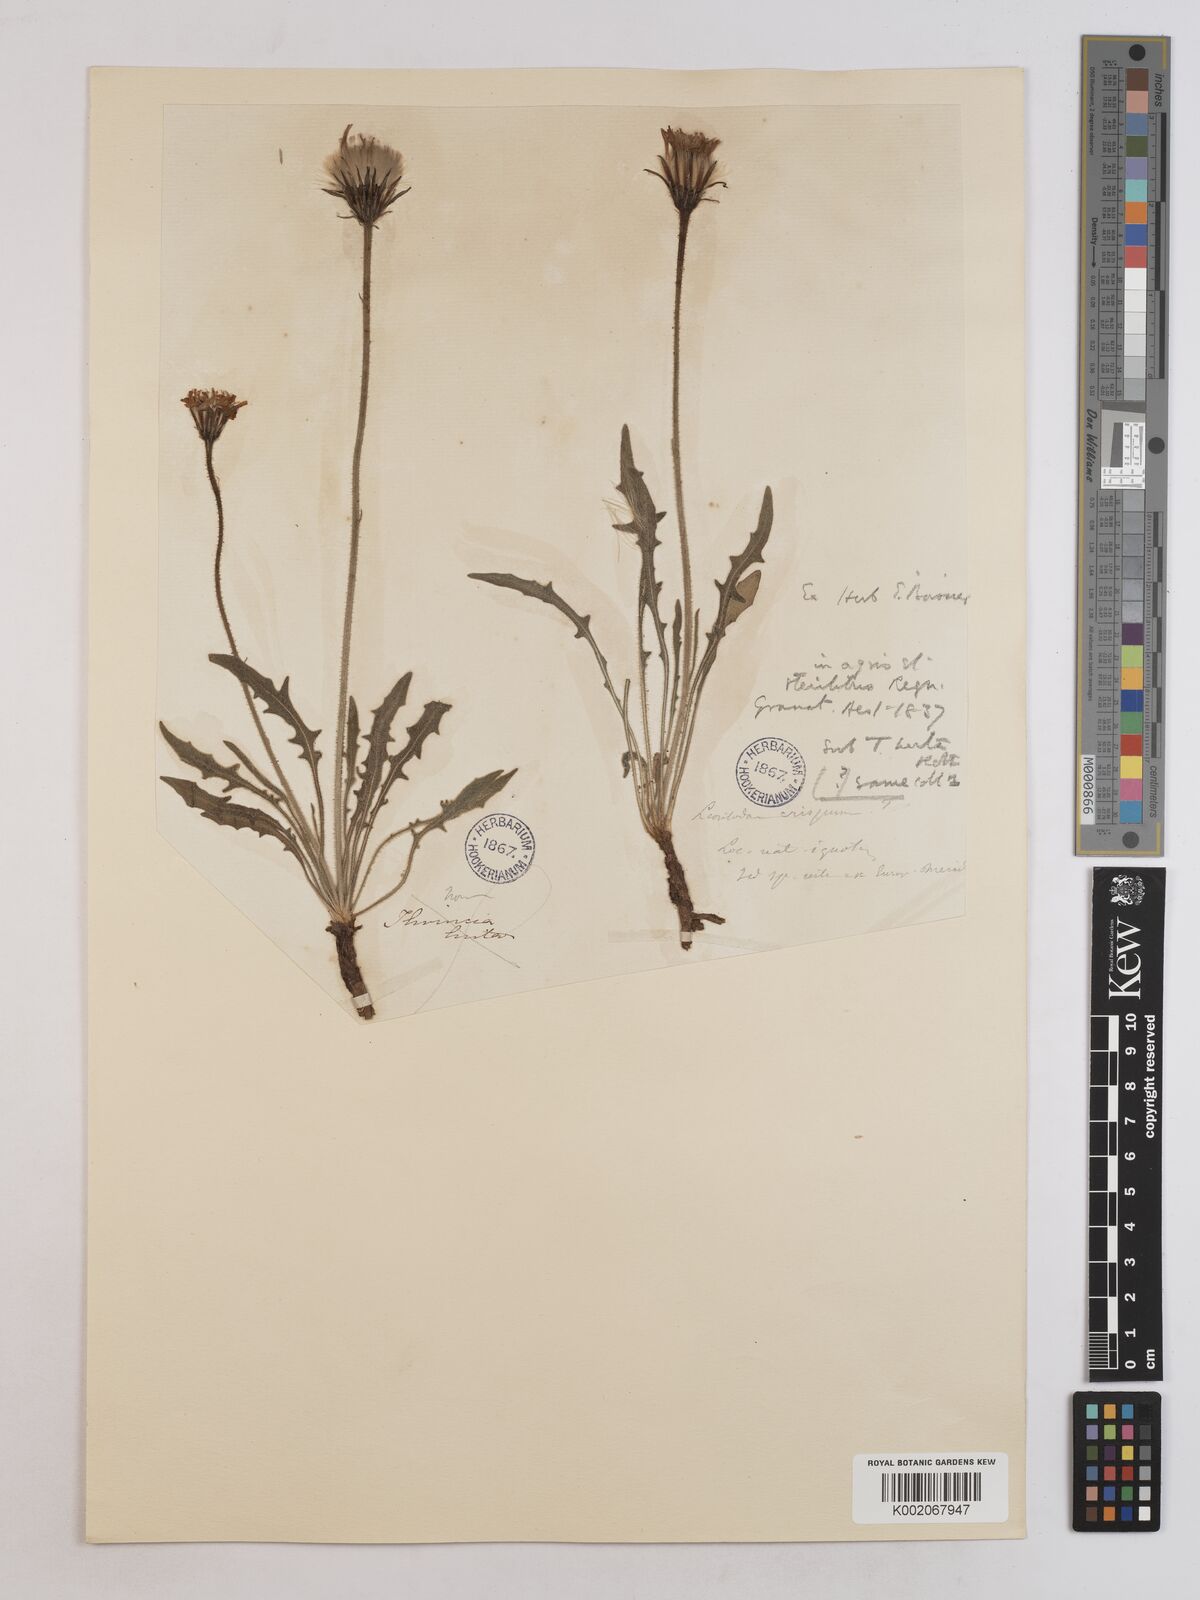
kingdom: Plantae
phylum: Tracheophyta
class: Magnoliopsida
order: Asterales
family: Asteraceae
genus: Leontodon
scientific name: Leontodon crispus
